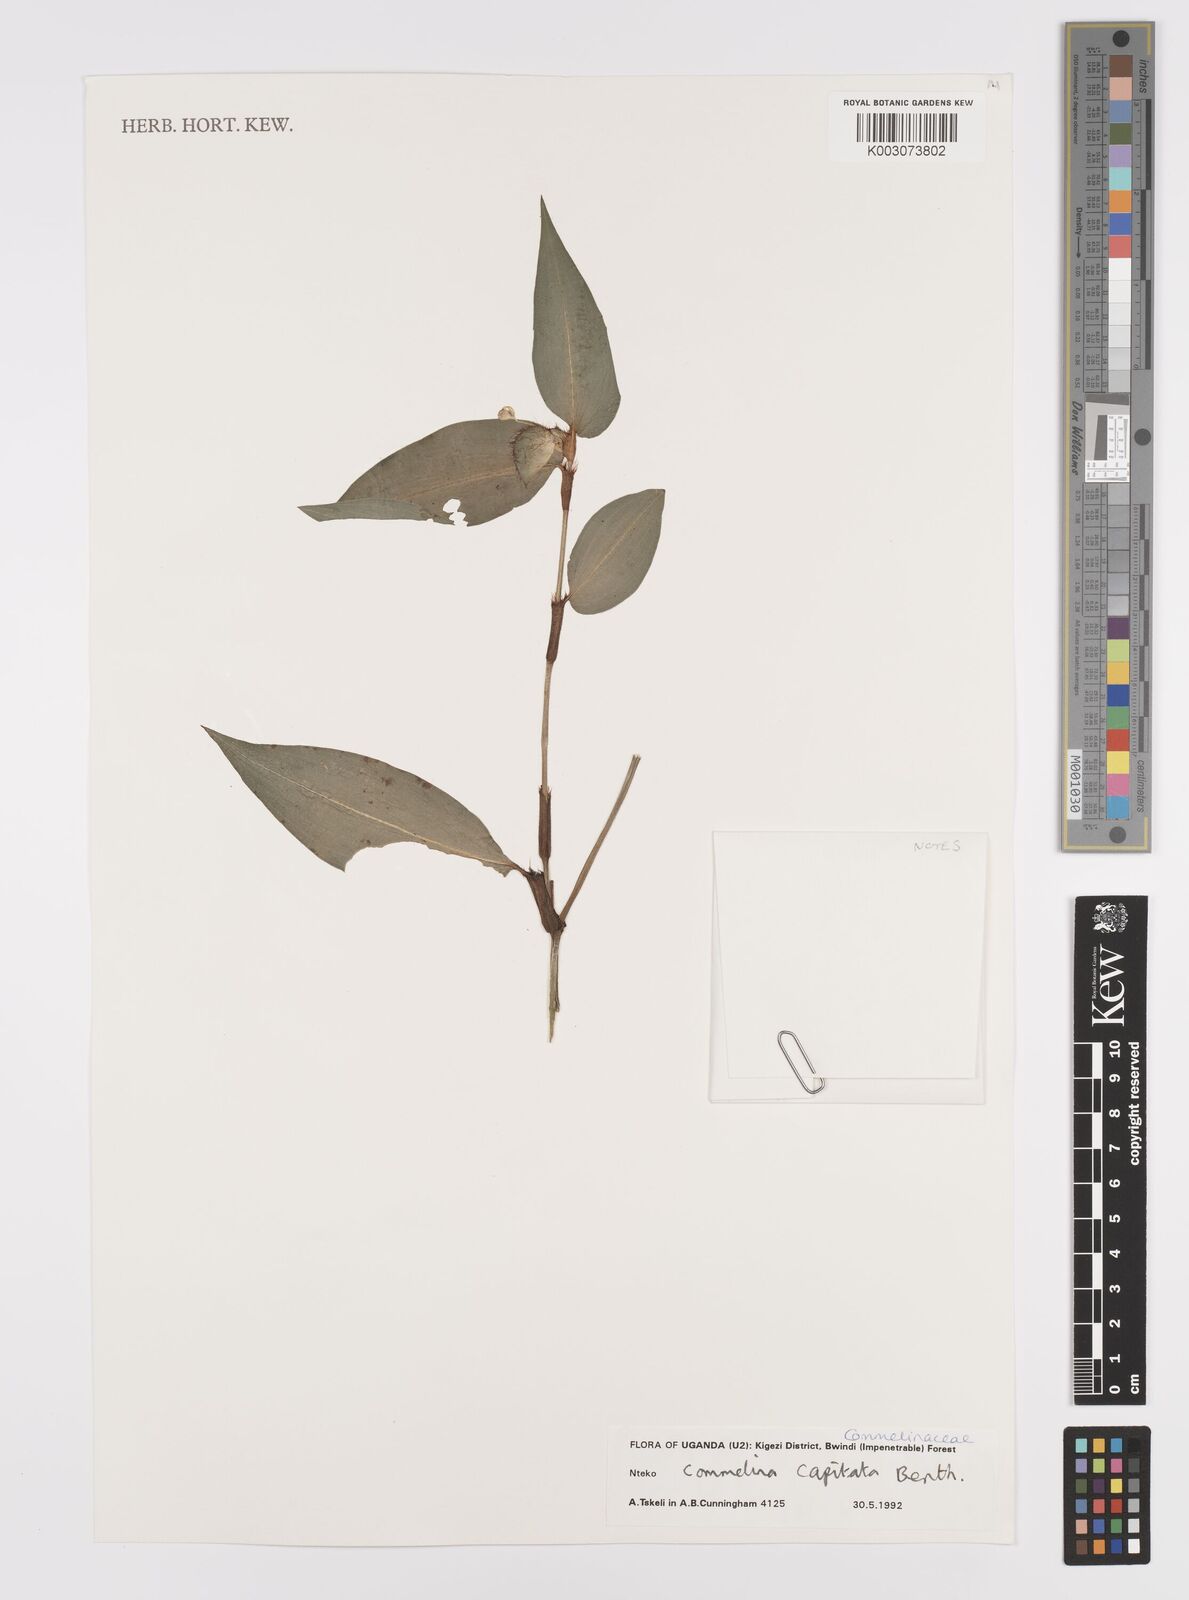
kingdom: Plantae
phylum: Tracheophyta
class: Liliopsida
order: Commelinales
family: Commelinaceae
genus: Commelina
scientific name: Commelina capitata
